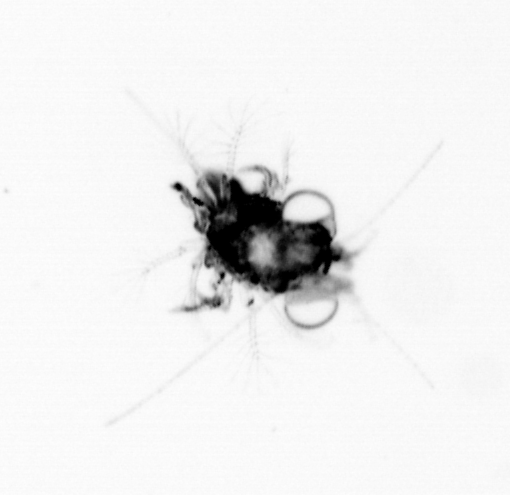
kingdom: Animalia
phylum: Arthropoda
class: Malacostraca
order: Decapoda
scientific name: Decapoda
